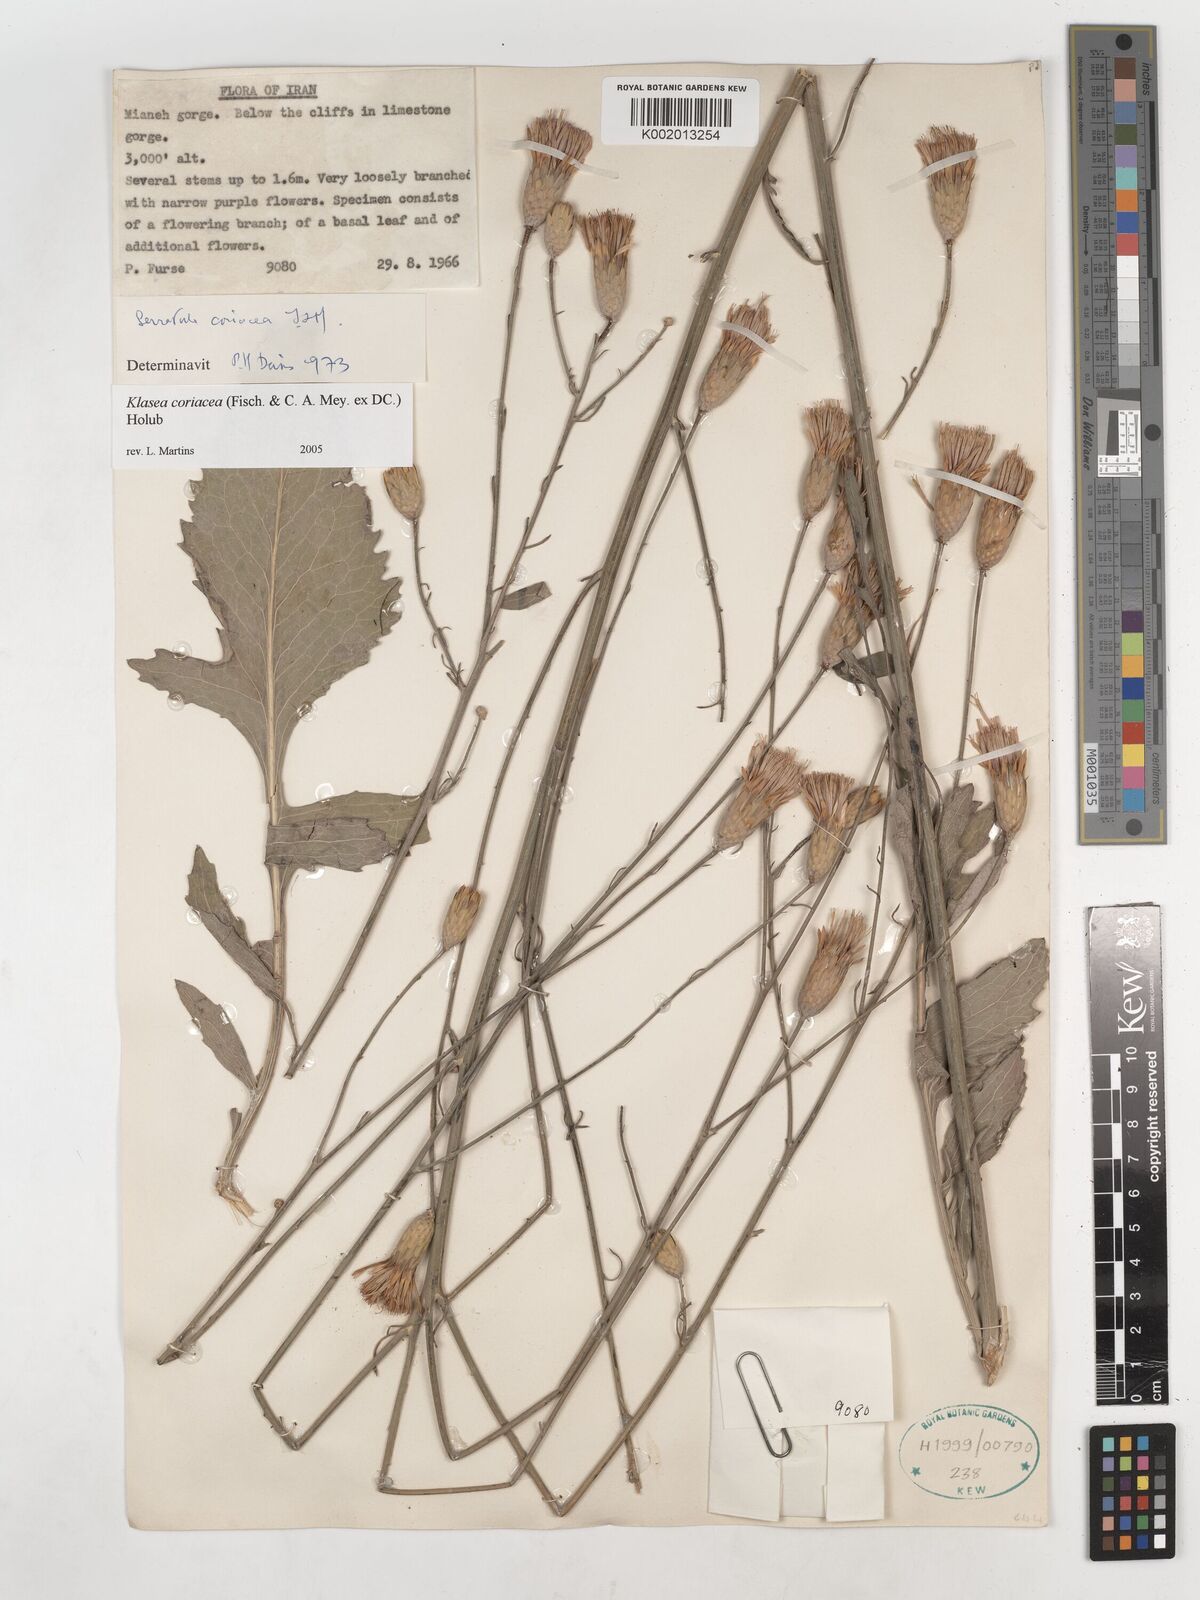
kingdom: Plantae
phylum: Tracheophyta
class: Magnoliopsida
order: Asterales
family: Asteraceae
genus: Klasea
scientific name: Klasea cerinthifolia
